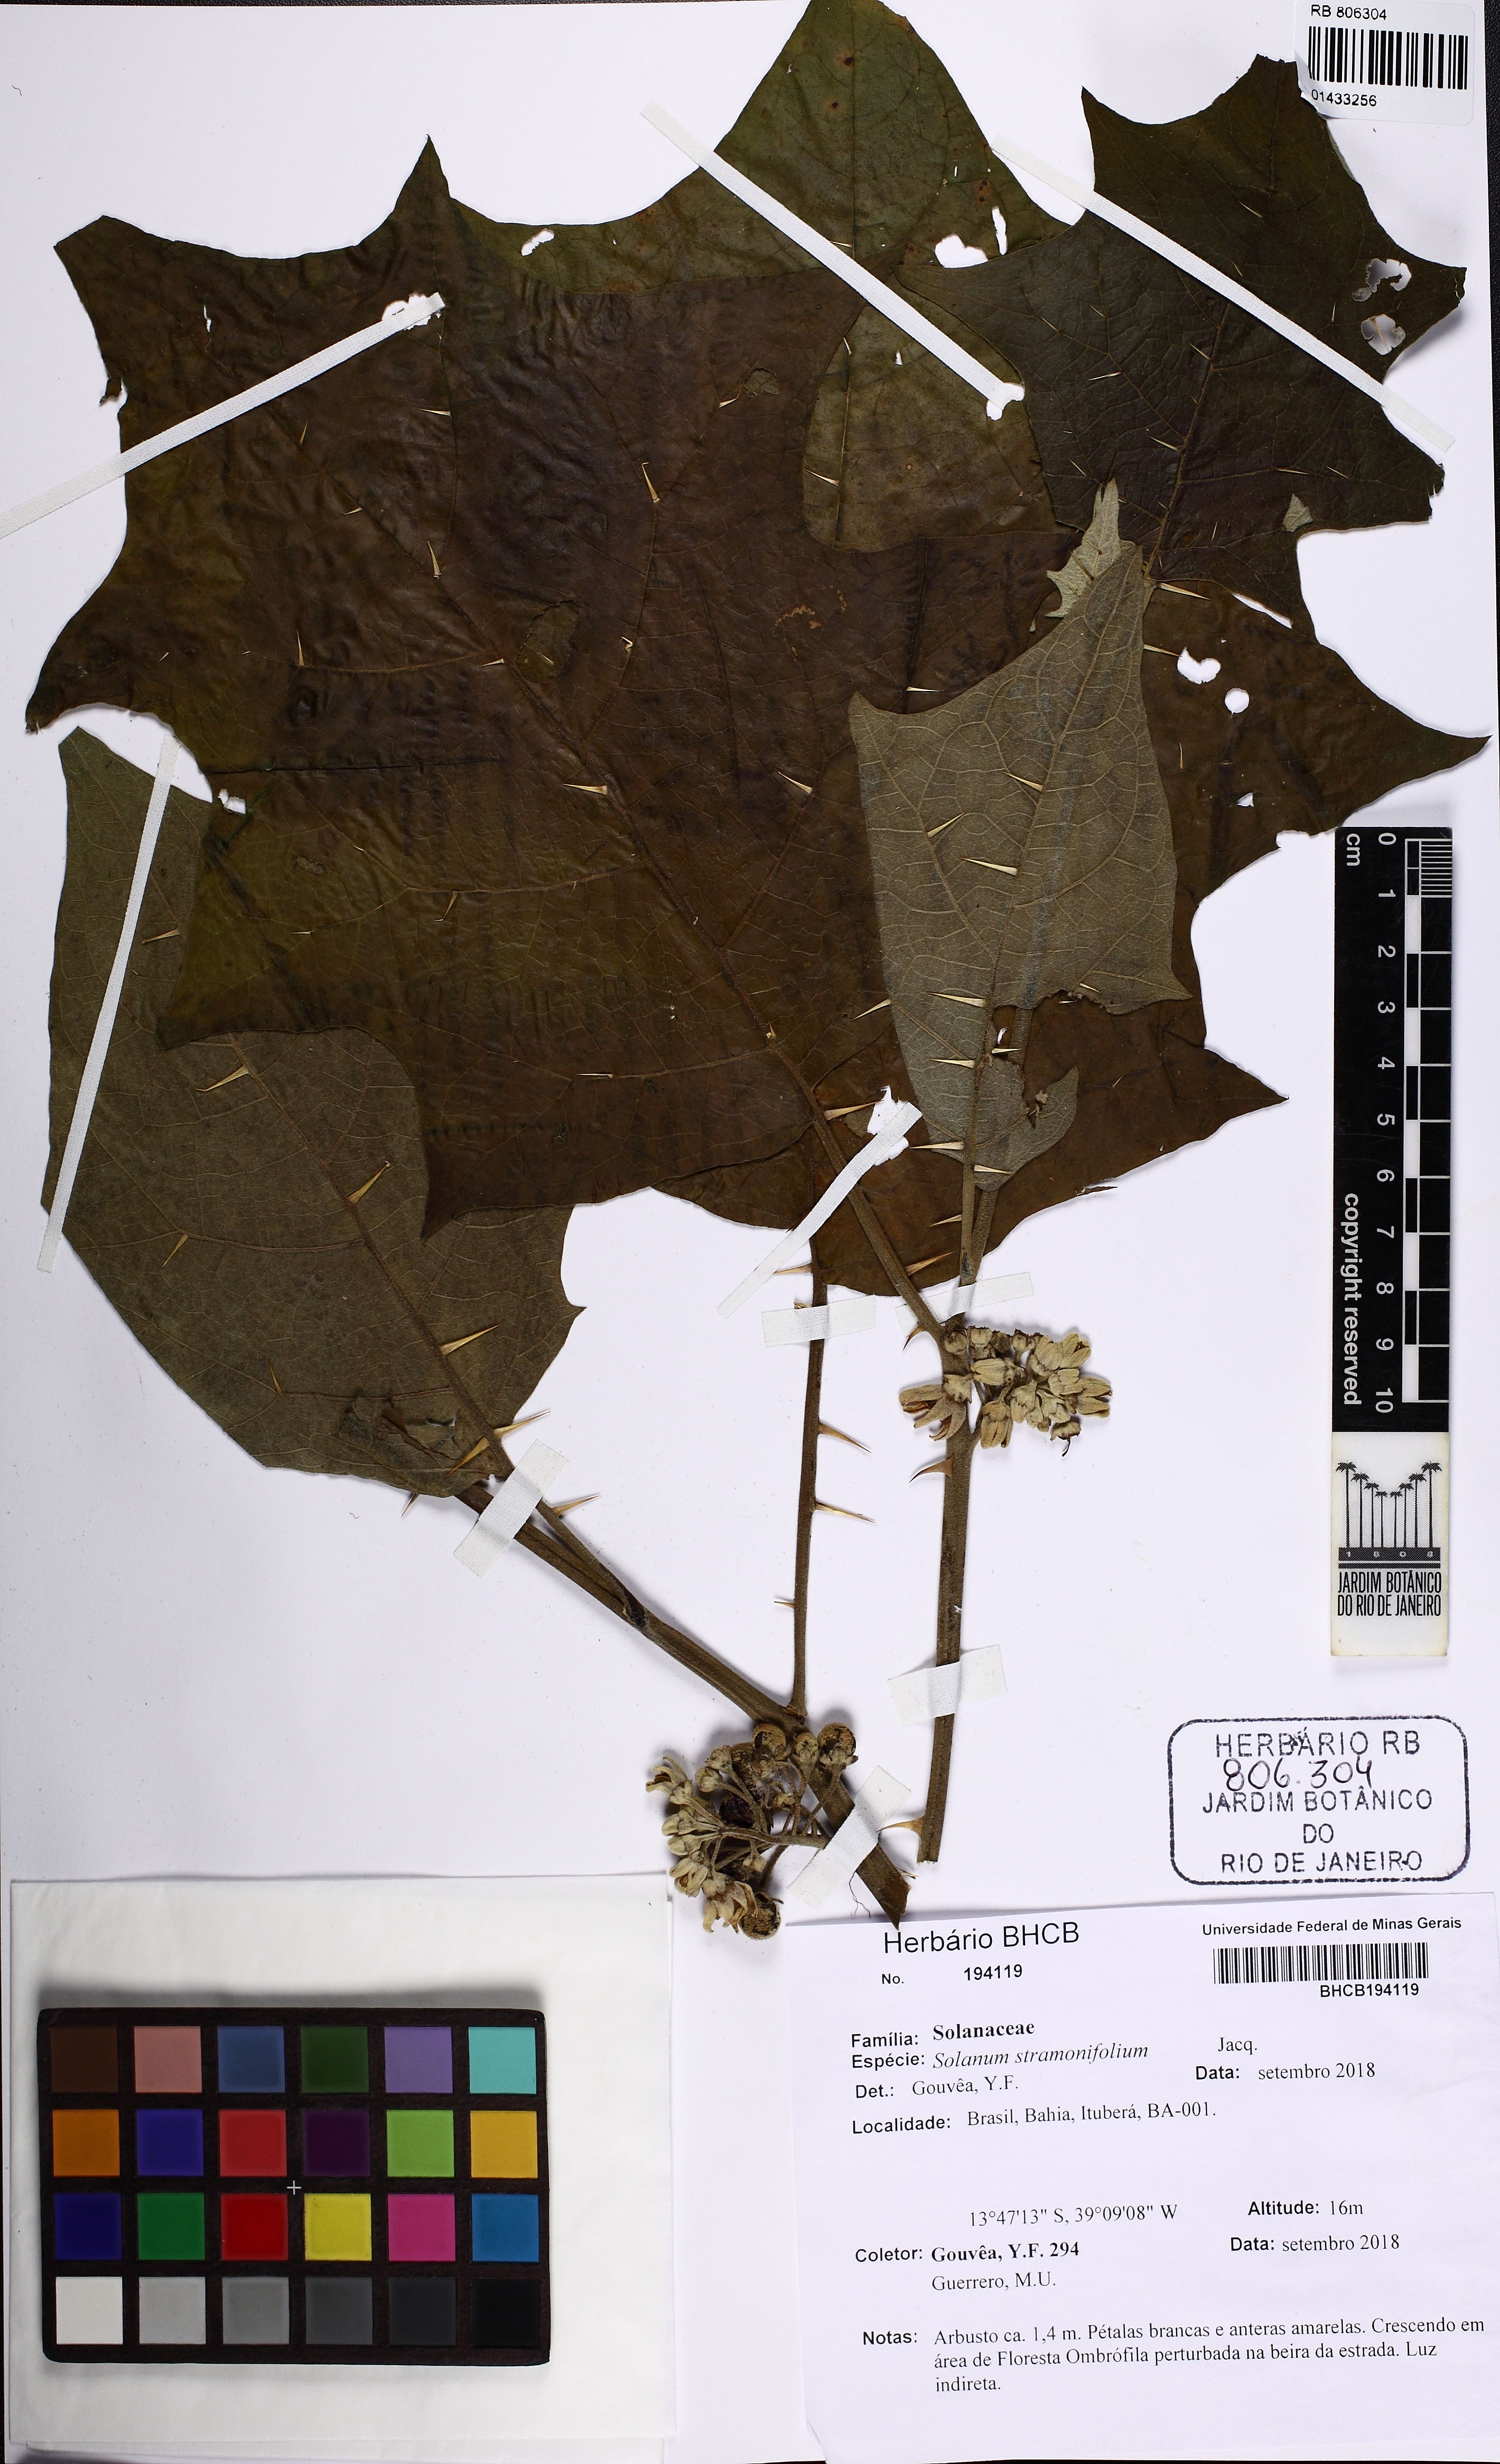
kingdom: Plantae
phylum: Tracheophyta
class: Magnoliopsida
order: Solanales
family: Solanaceae
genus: Solanum
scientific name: Solanum stramonifolium
